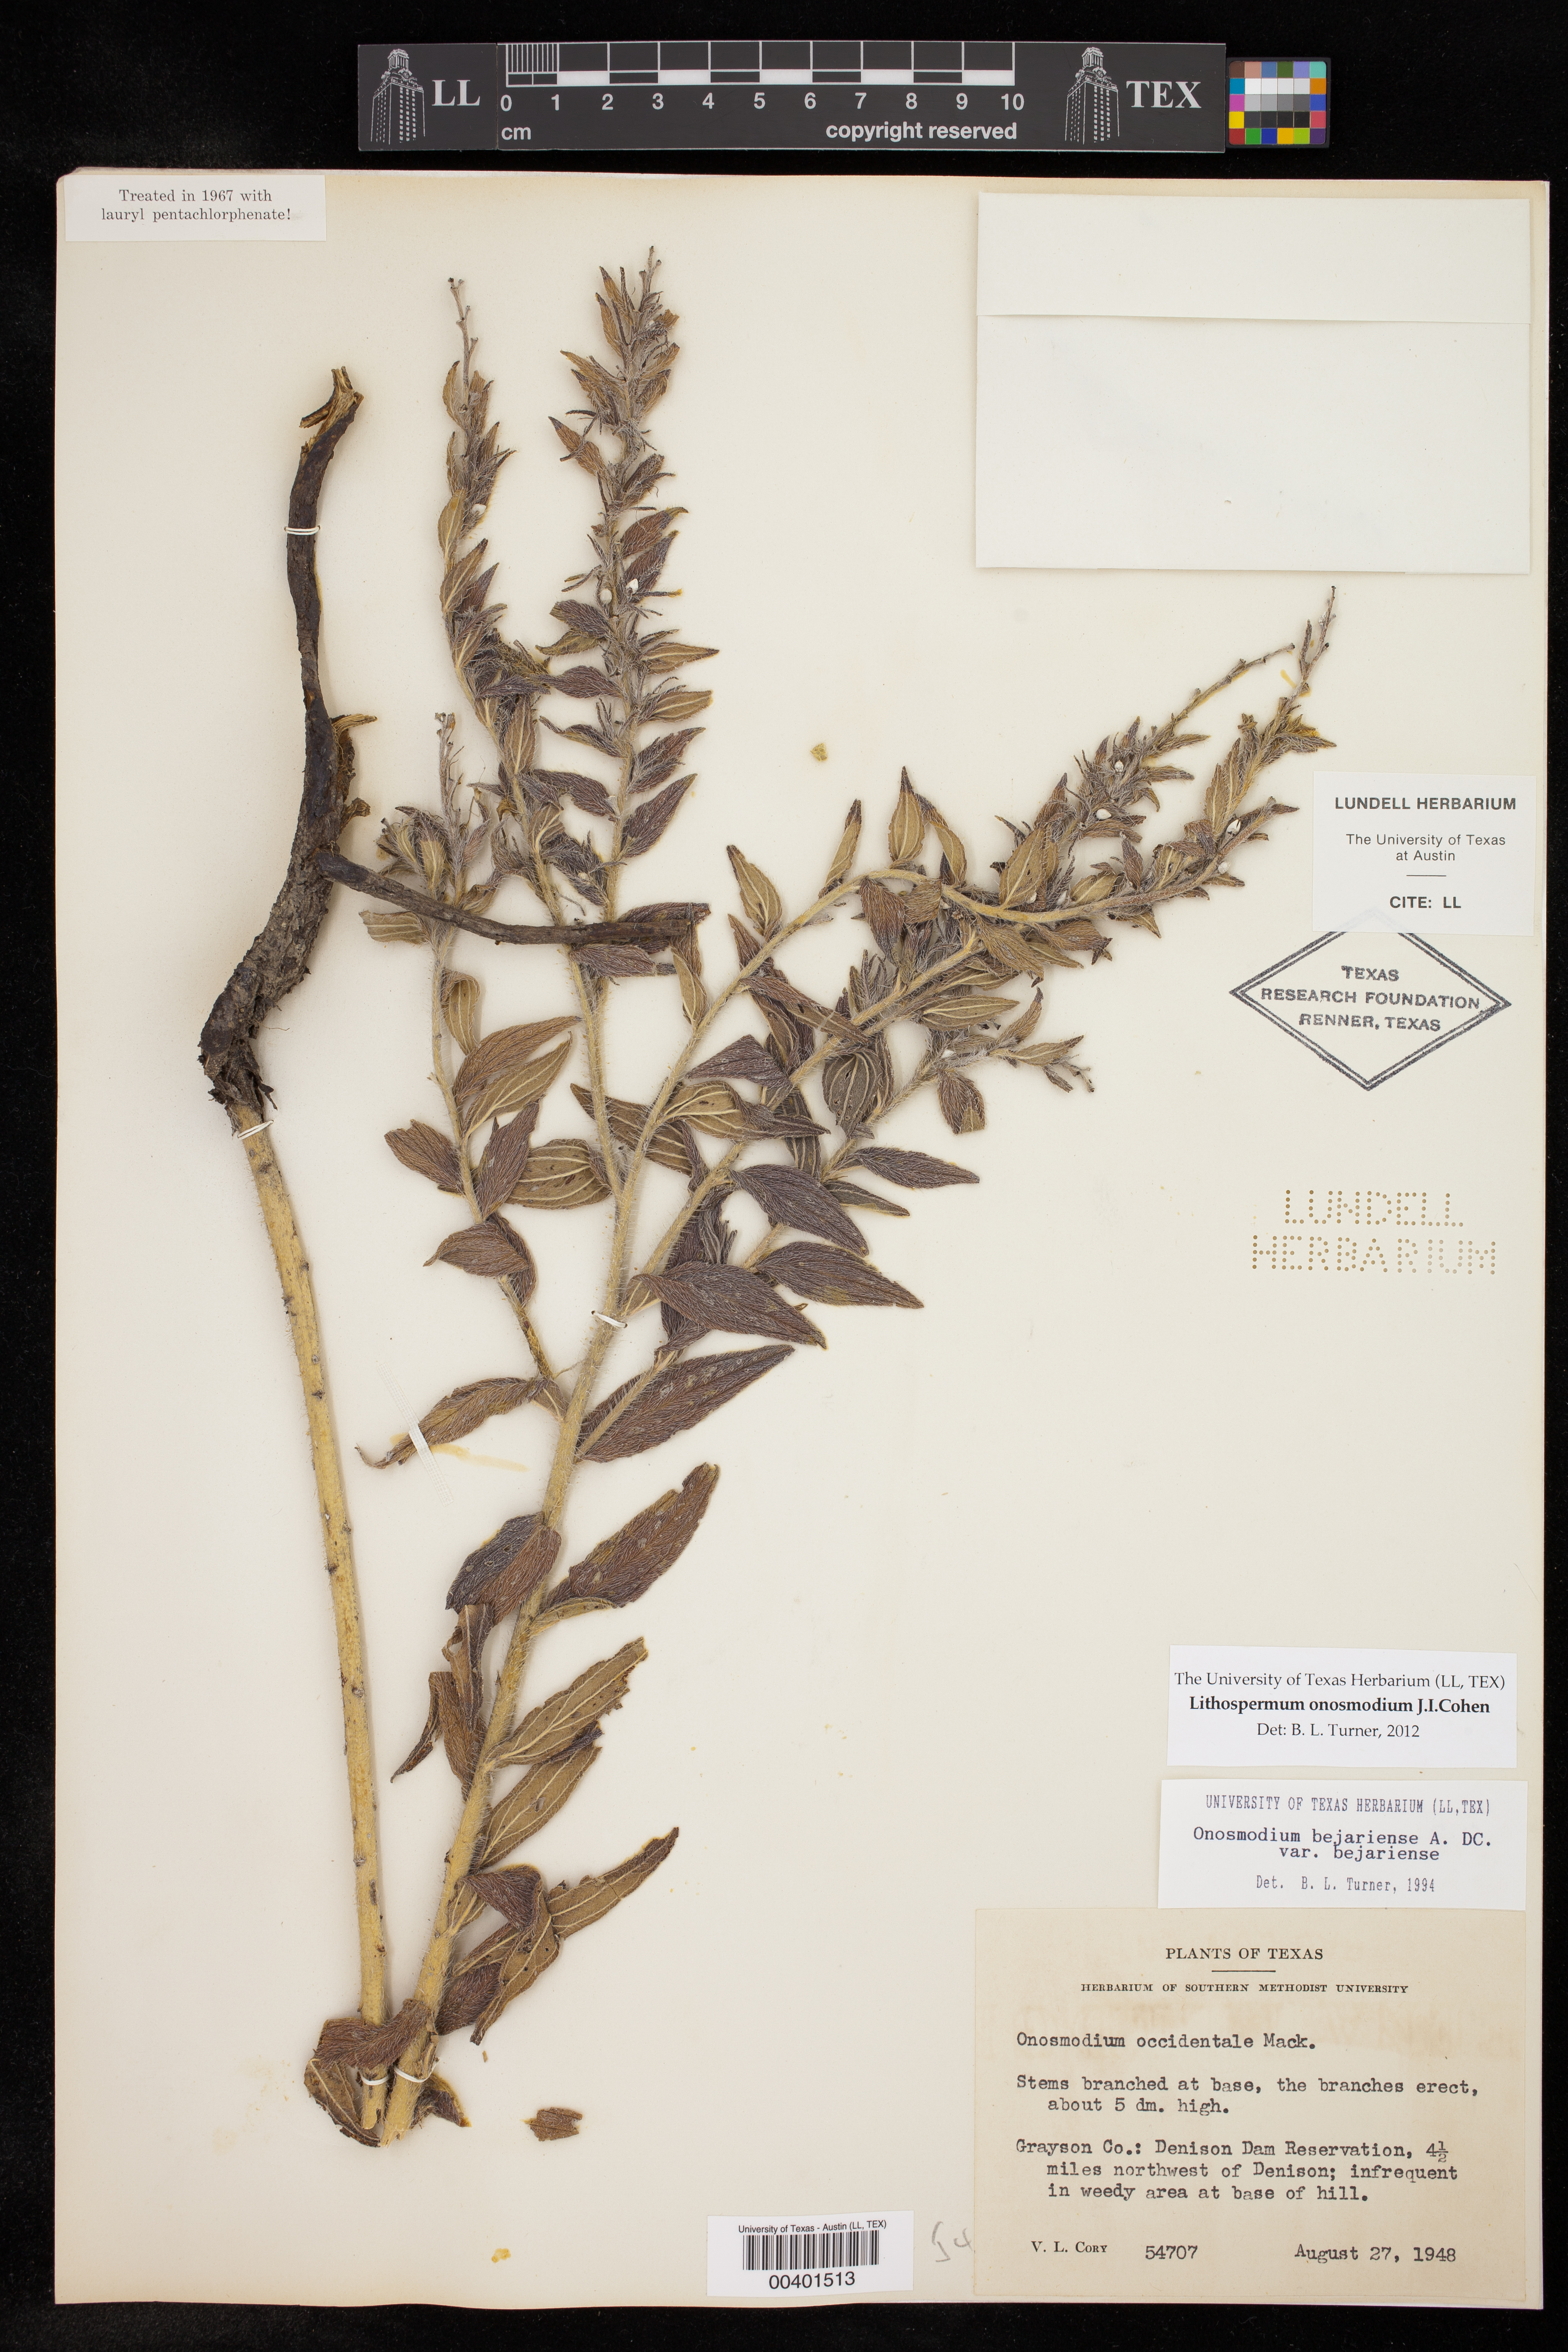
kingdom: Plantae
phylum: Tracheophyta
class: Magnoliopsida
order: Boraginales
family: Boraginaceae
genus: Lithospermum
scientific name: Lithospermum molle
